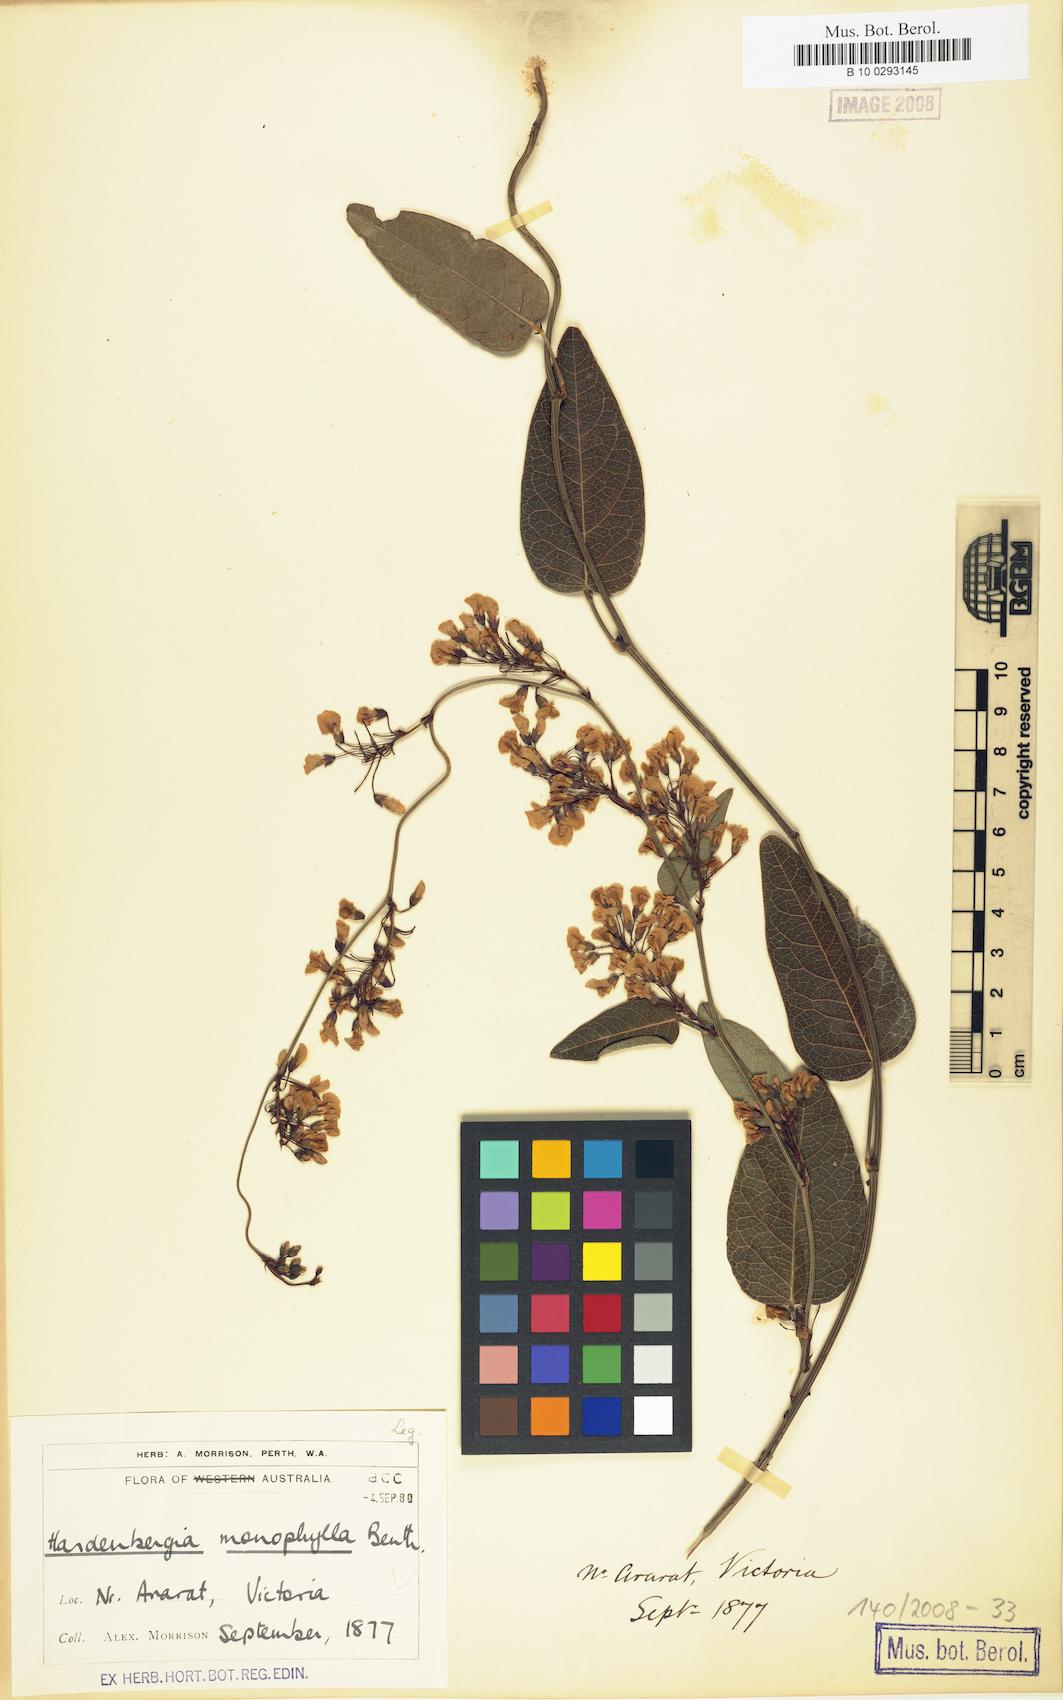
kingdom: Plantae
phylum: Tracheophyta
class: Magnoliopsida
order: Fabales
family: Fabaceae
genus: Hardenbergia
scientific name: Hardenbergia violacea
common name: Coral-pea
